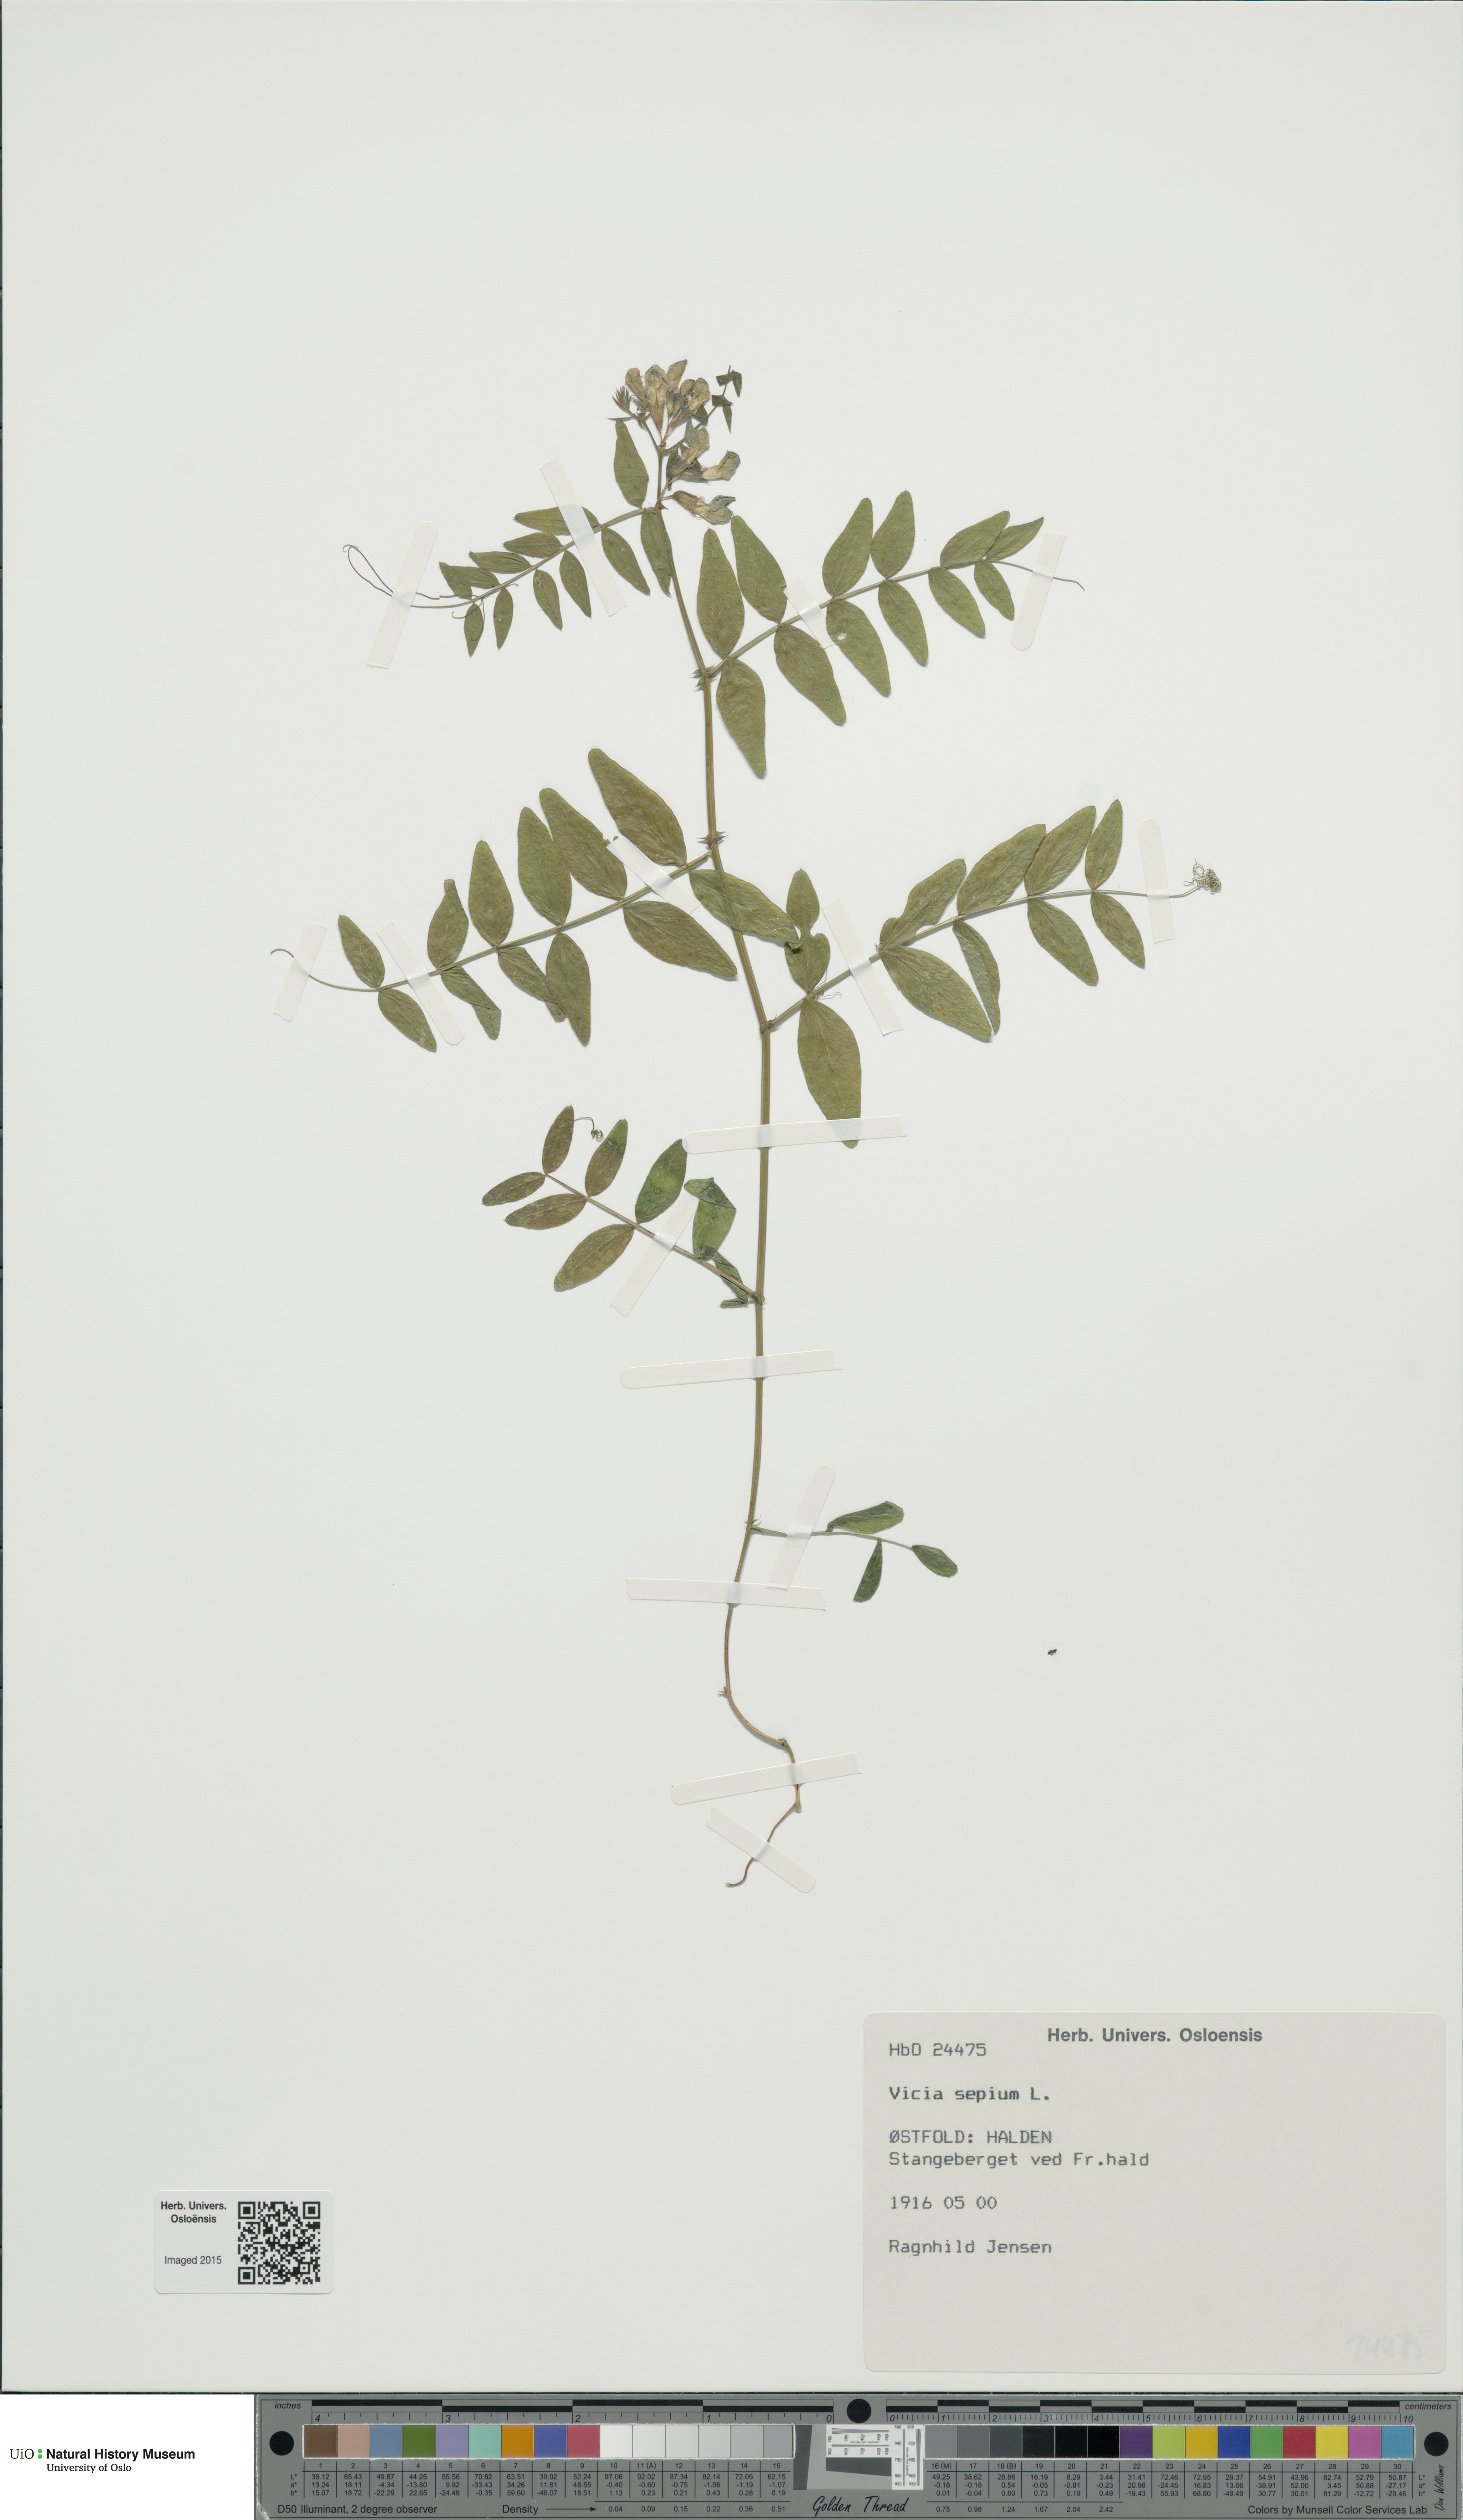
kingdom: Plantae
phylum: Tracheophyta
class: Magnoliopsida
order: Fabales
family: Fabaceae
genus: Vicia
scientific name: Vicia sepium
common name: Bush vetch
